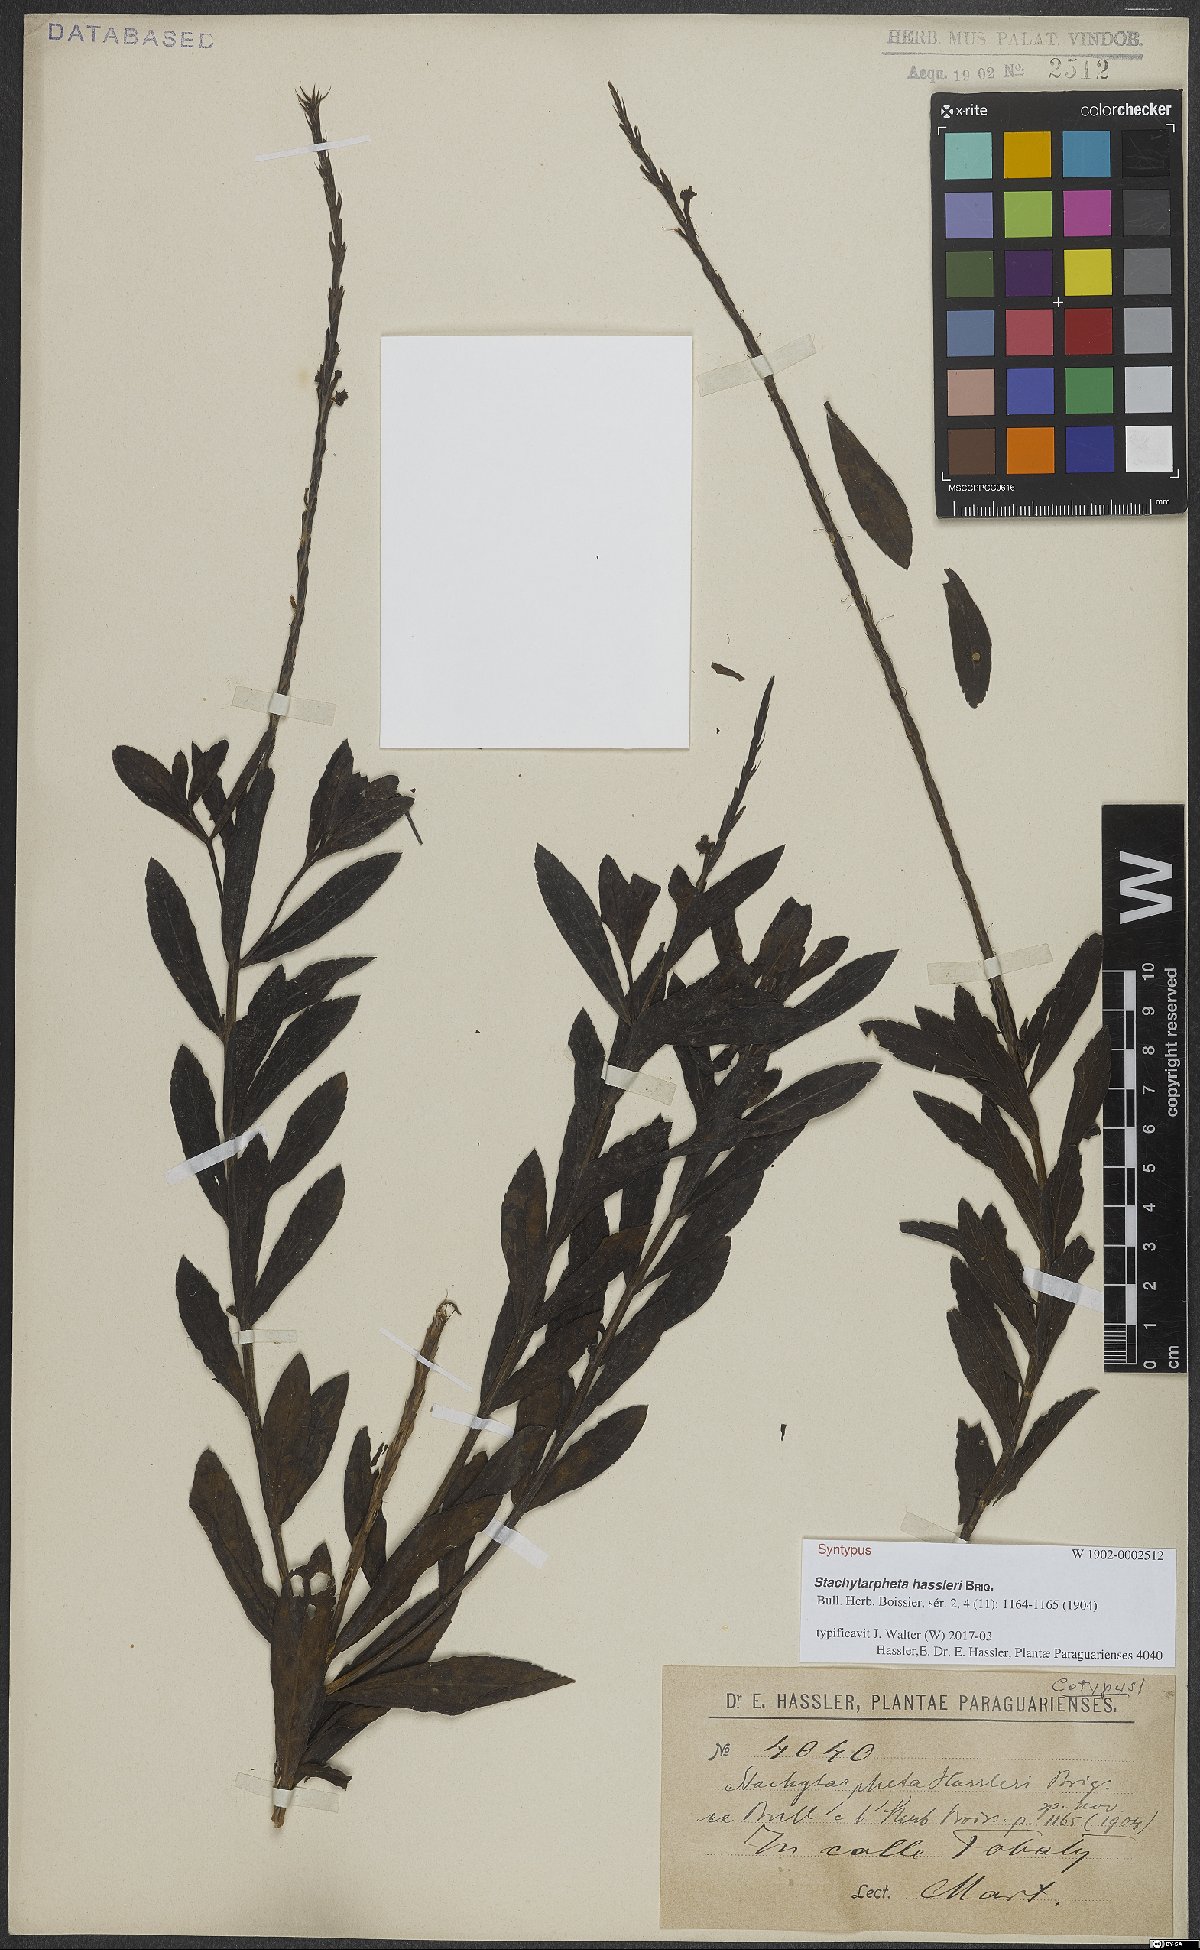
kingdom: Plantae
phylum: Tracheophyta
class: Magnoliopsida
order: Lamiales
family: Verbenaceae
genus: Stachytarpheta
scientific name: Stachytarpheta hassleri
